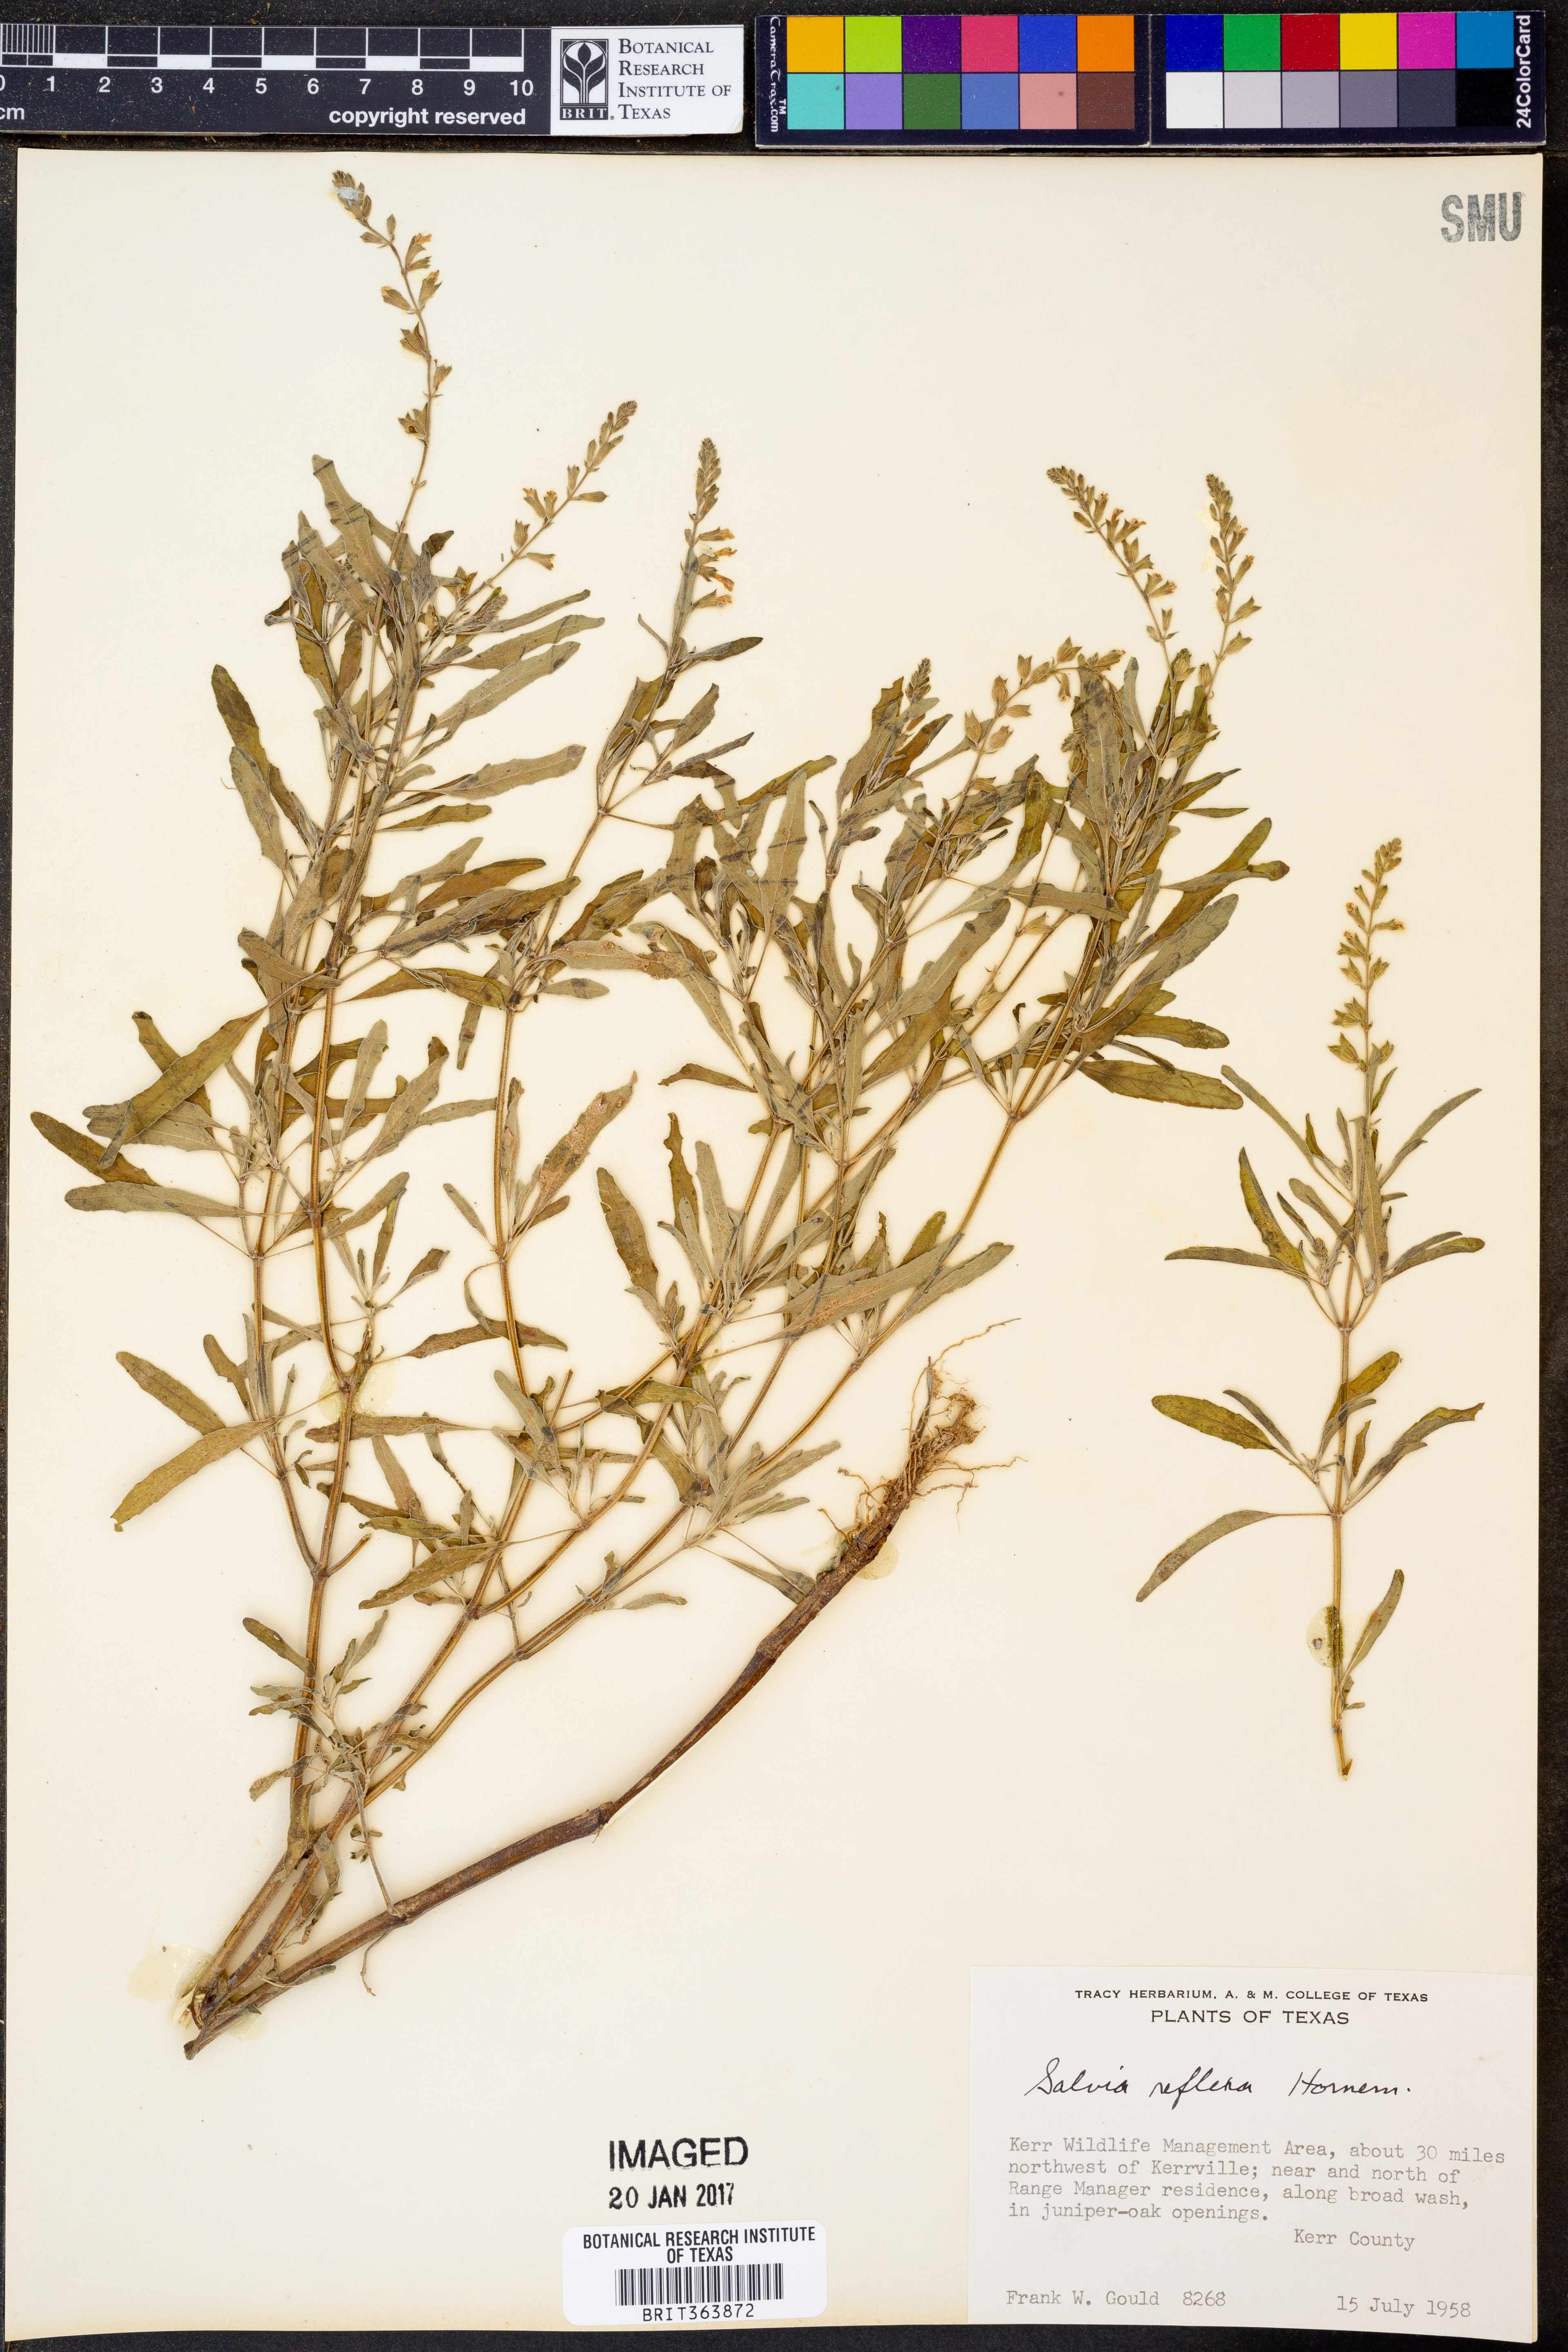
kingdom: Plantae
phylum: Tracheophyta
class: Magnoliopsida
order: Lamiales
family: Lamiaceae
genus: Salvia
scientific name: Salvia reflexa
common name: Mintweed
